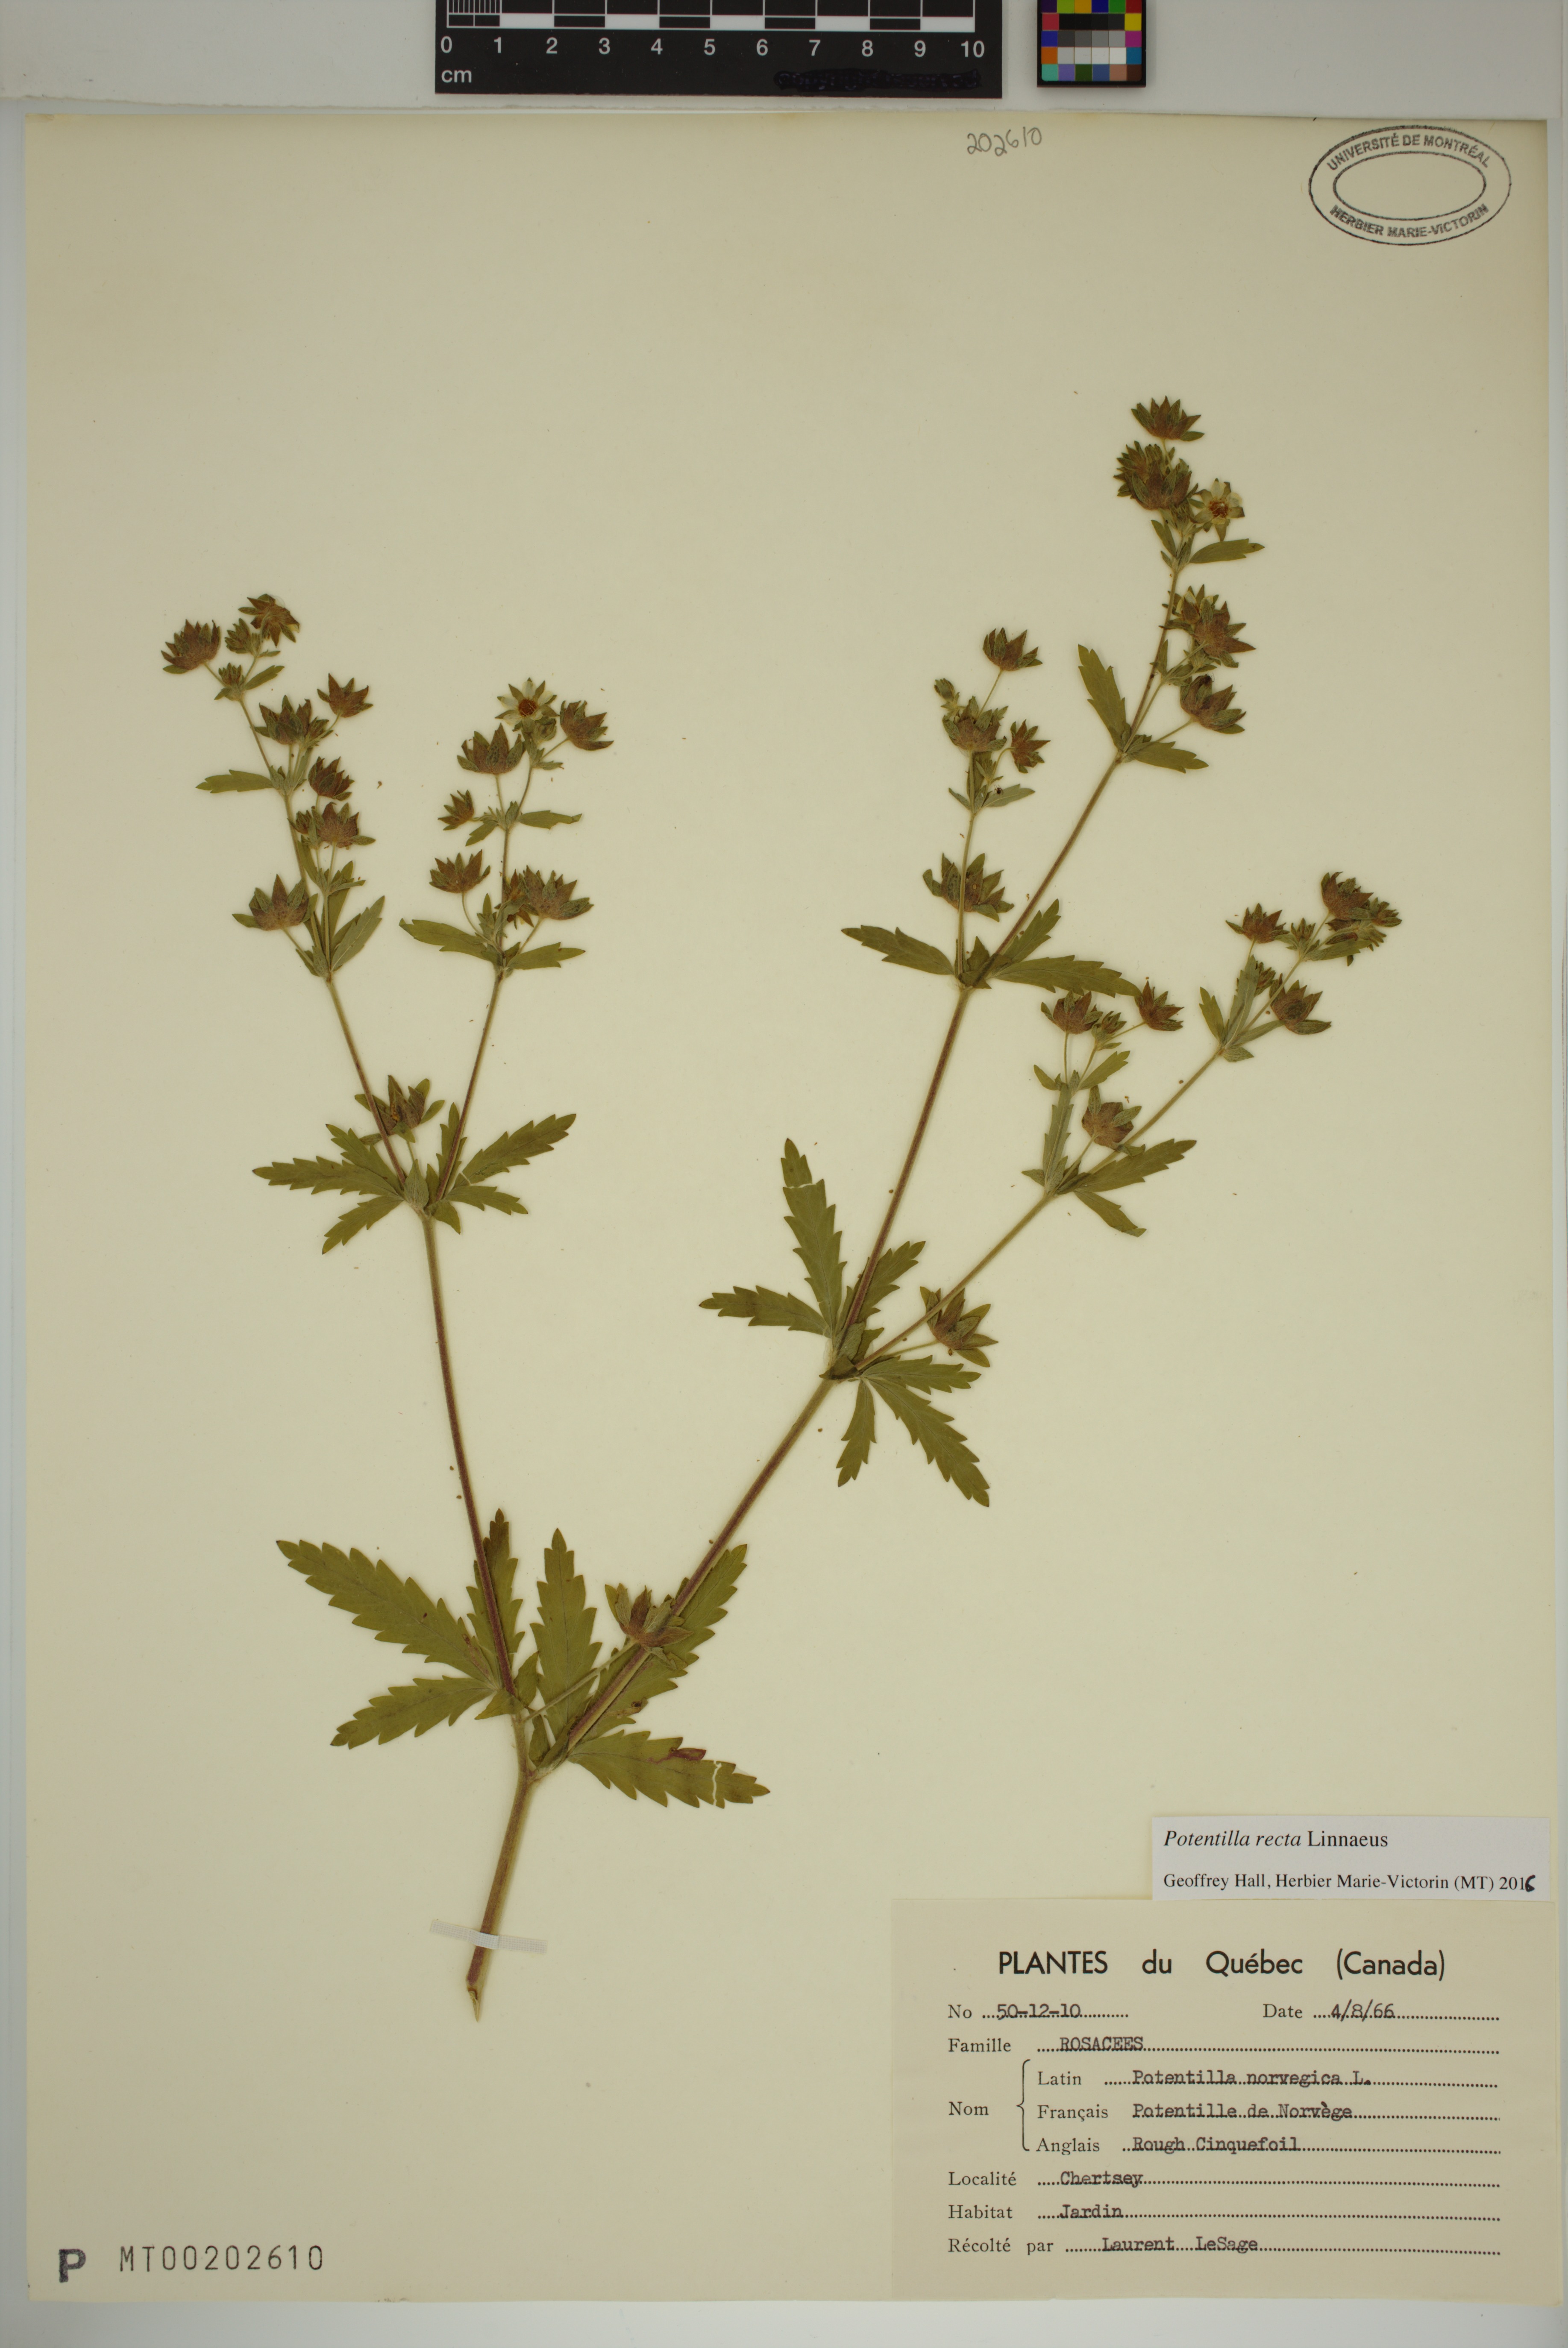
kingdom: Plantae
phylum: Tracheophyta
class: Magnoliopsida
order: Rosales
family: Rosaceae
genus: Potentilla
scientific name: Potentilla recta
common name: Sulphur cinquefoil
